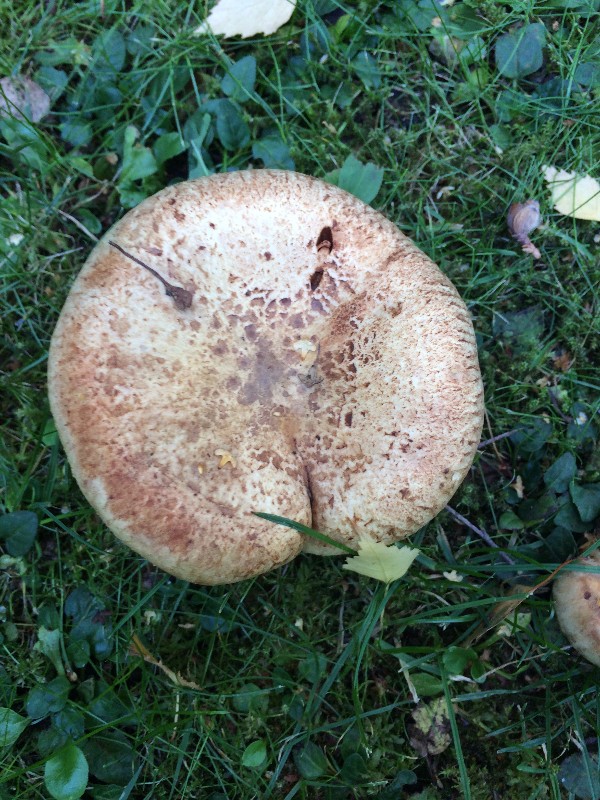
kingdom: Fungi
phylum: Basidiomycota
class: Agaricomycetes
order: Boletales
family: Paxillaceae
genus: Paxillus
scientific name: Paxillus involutus
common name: almindelig netbladhat
